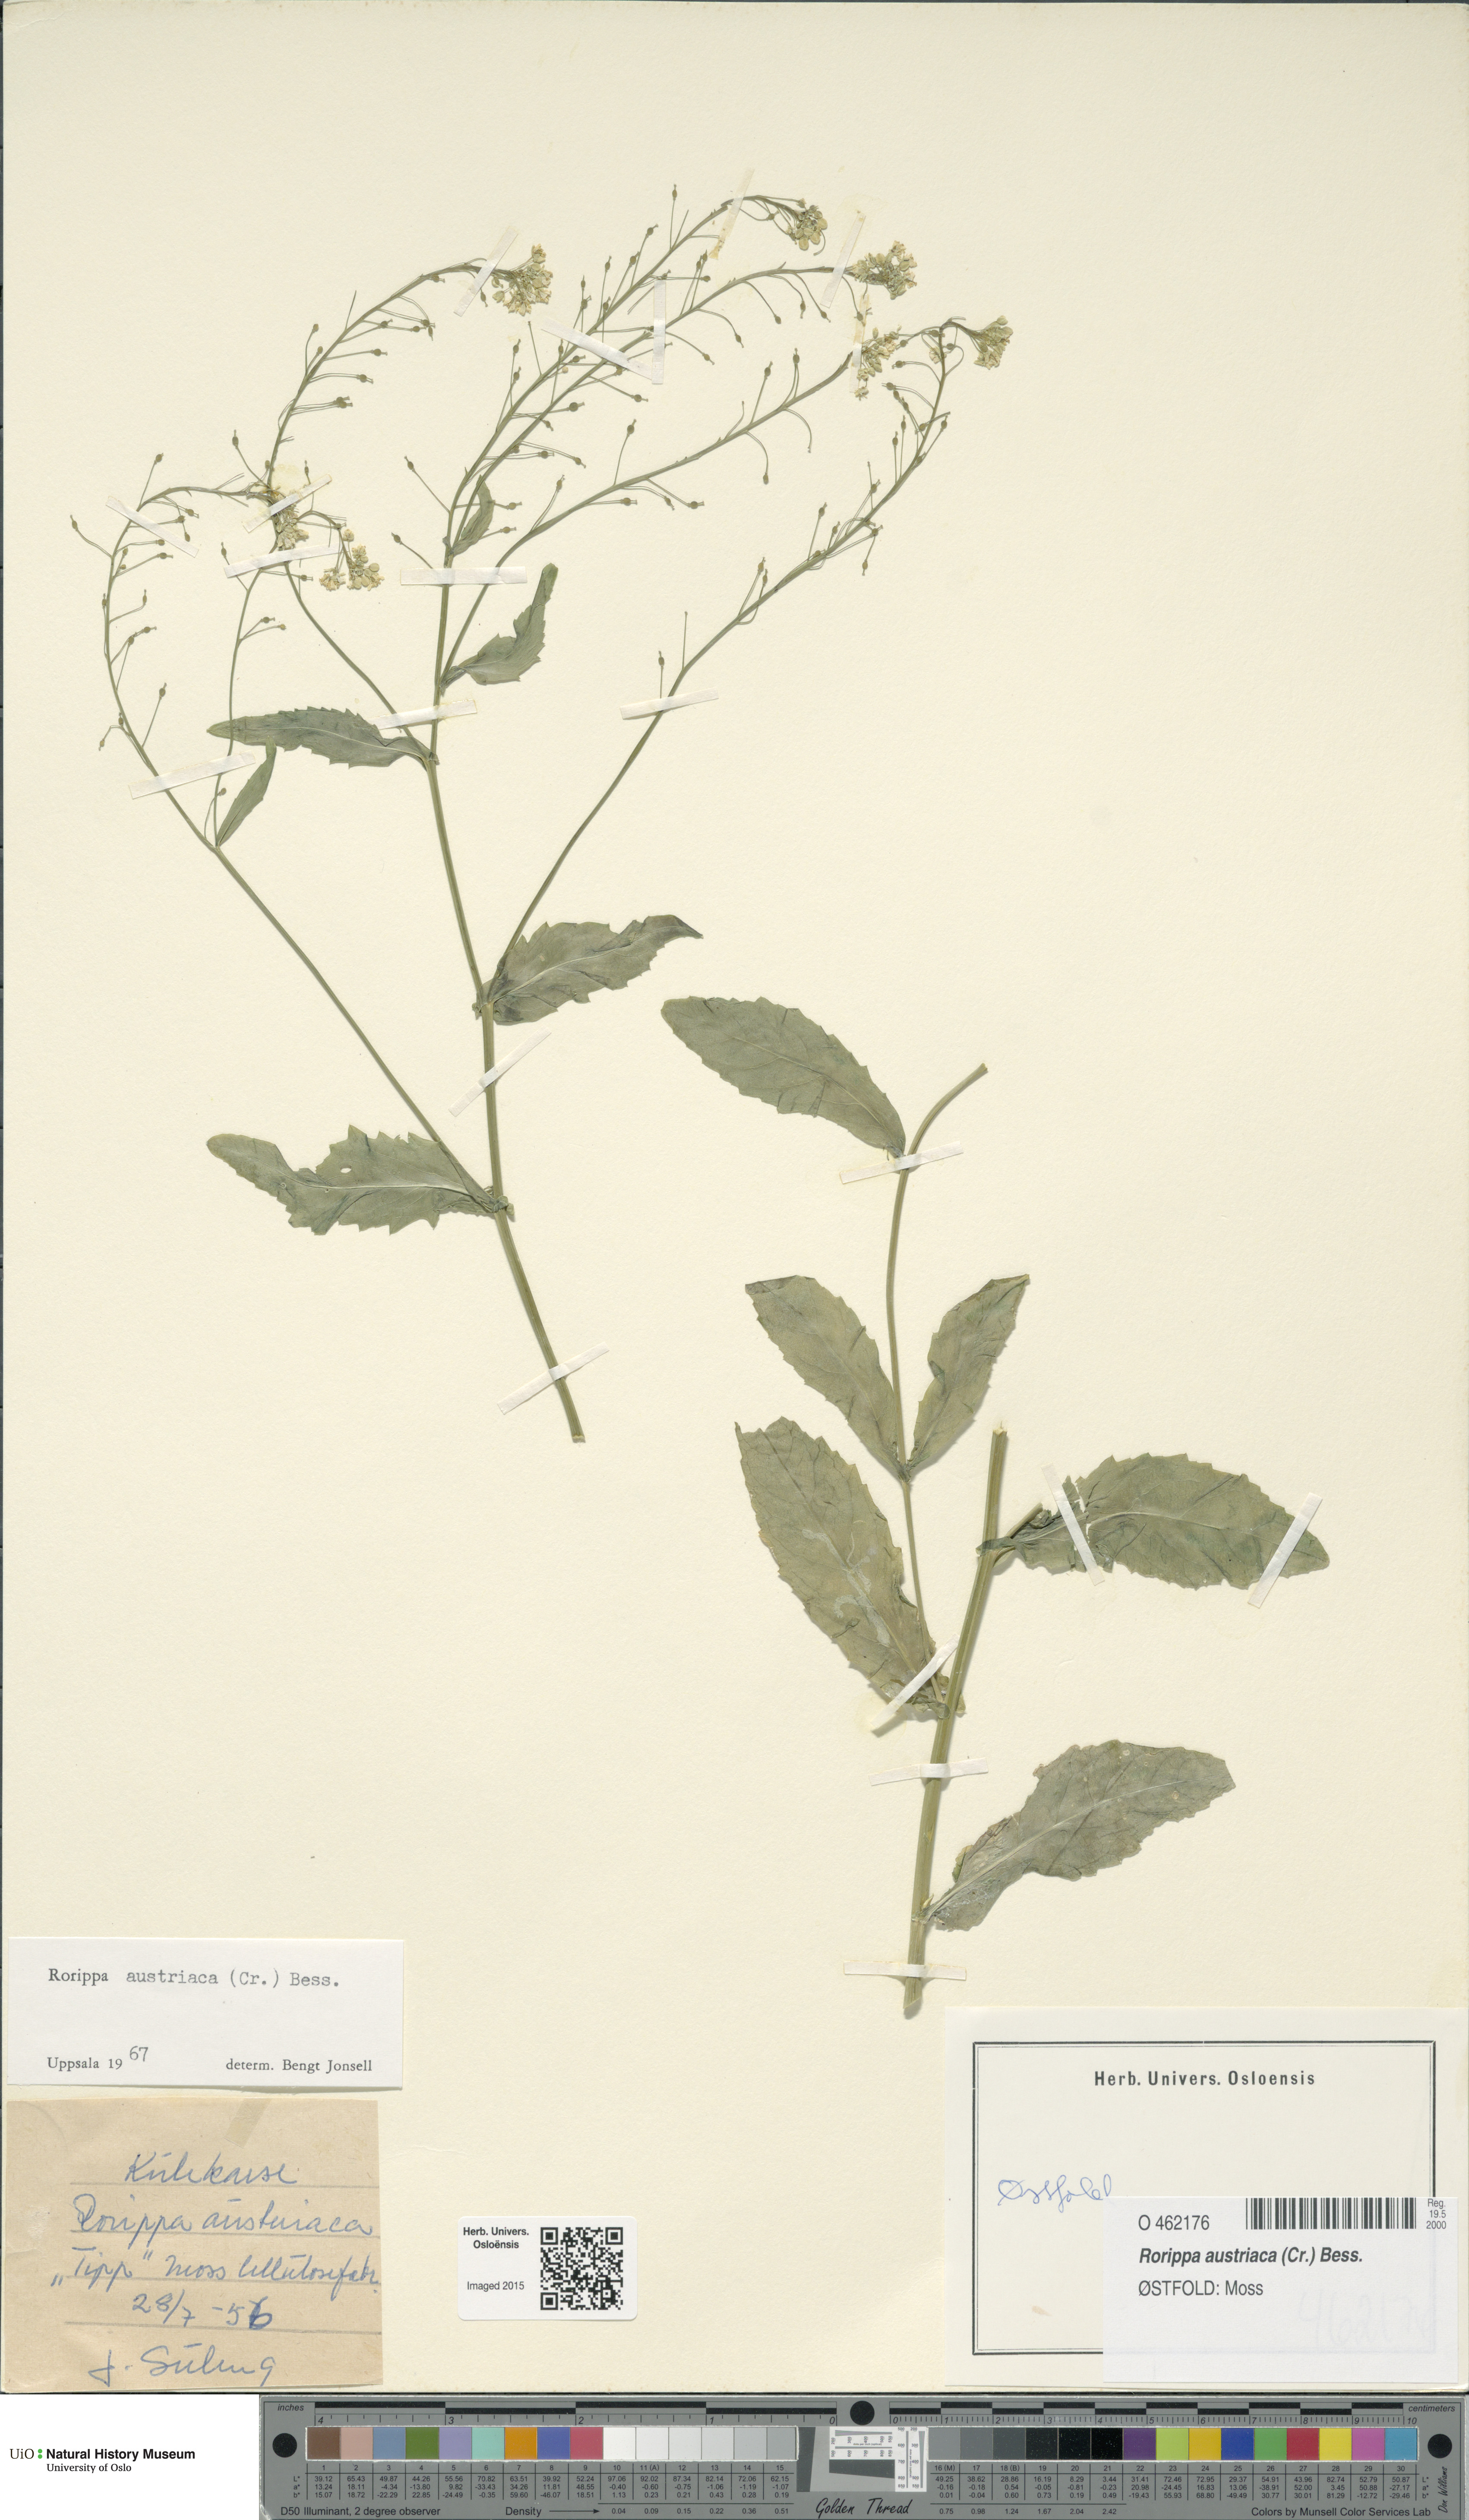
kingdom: Plantae
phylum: Tracheophyta
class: Magnoliopsida
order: Brassicales
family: Brassicaceae
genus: Rorippa
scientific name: Rorippa austriaca
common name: Austrian yellow-cress
